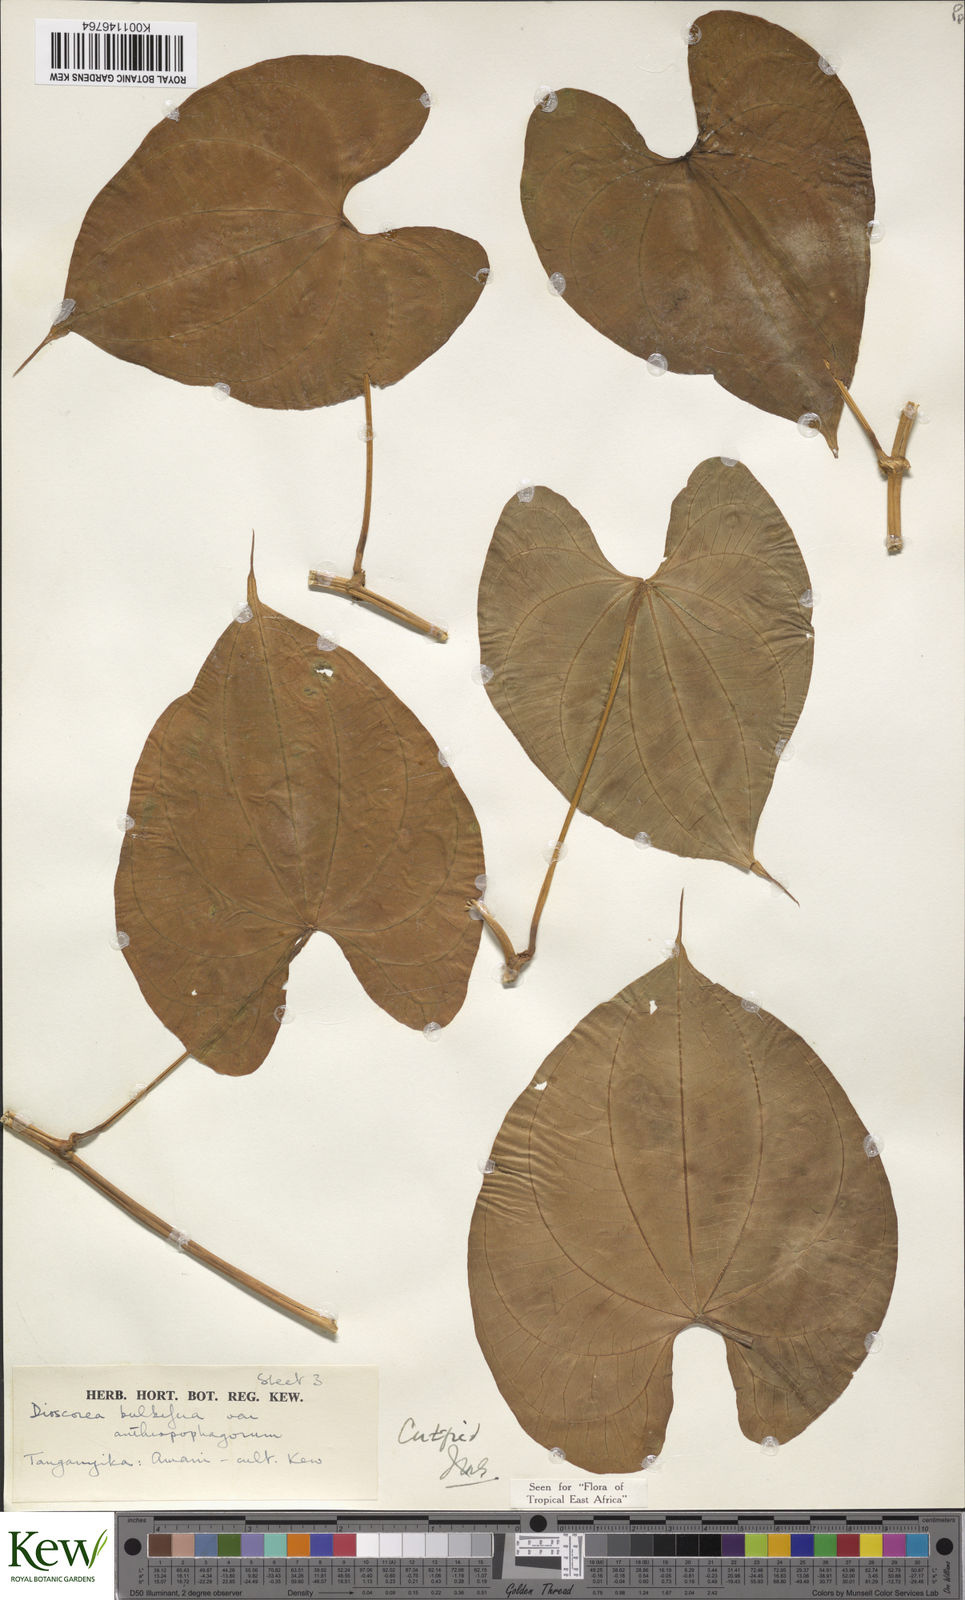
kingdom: Plantae
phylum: Tracheophyta
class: Liliopsida
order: Dioscoreales
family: Dioscoreaceae
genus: Dioscorea
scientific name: Dioscorea bulbifera
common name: Air yam
